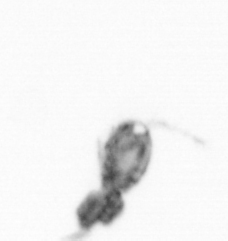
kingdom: Animalia
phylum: Arthropoda
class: Copepoda
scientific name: Copepoda
